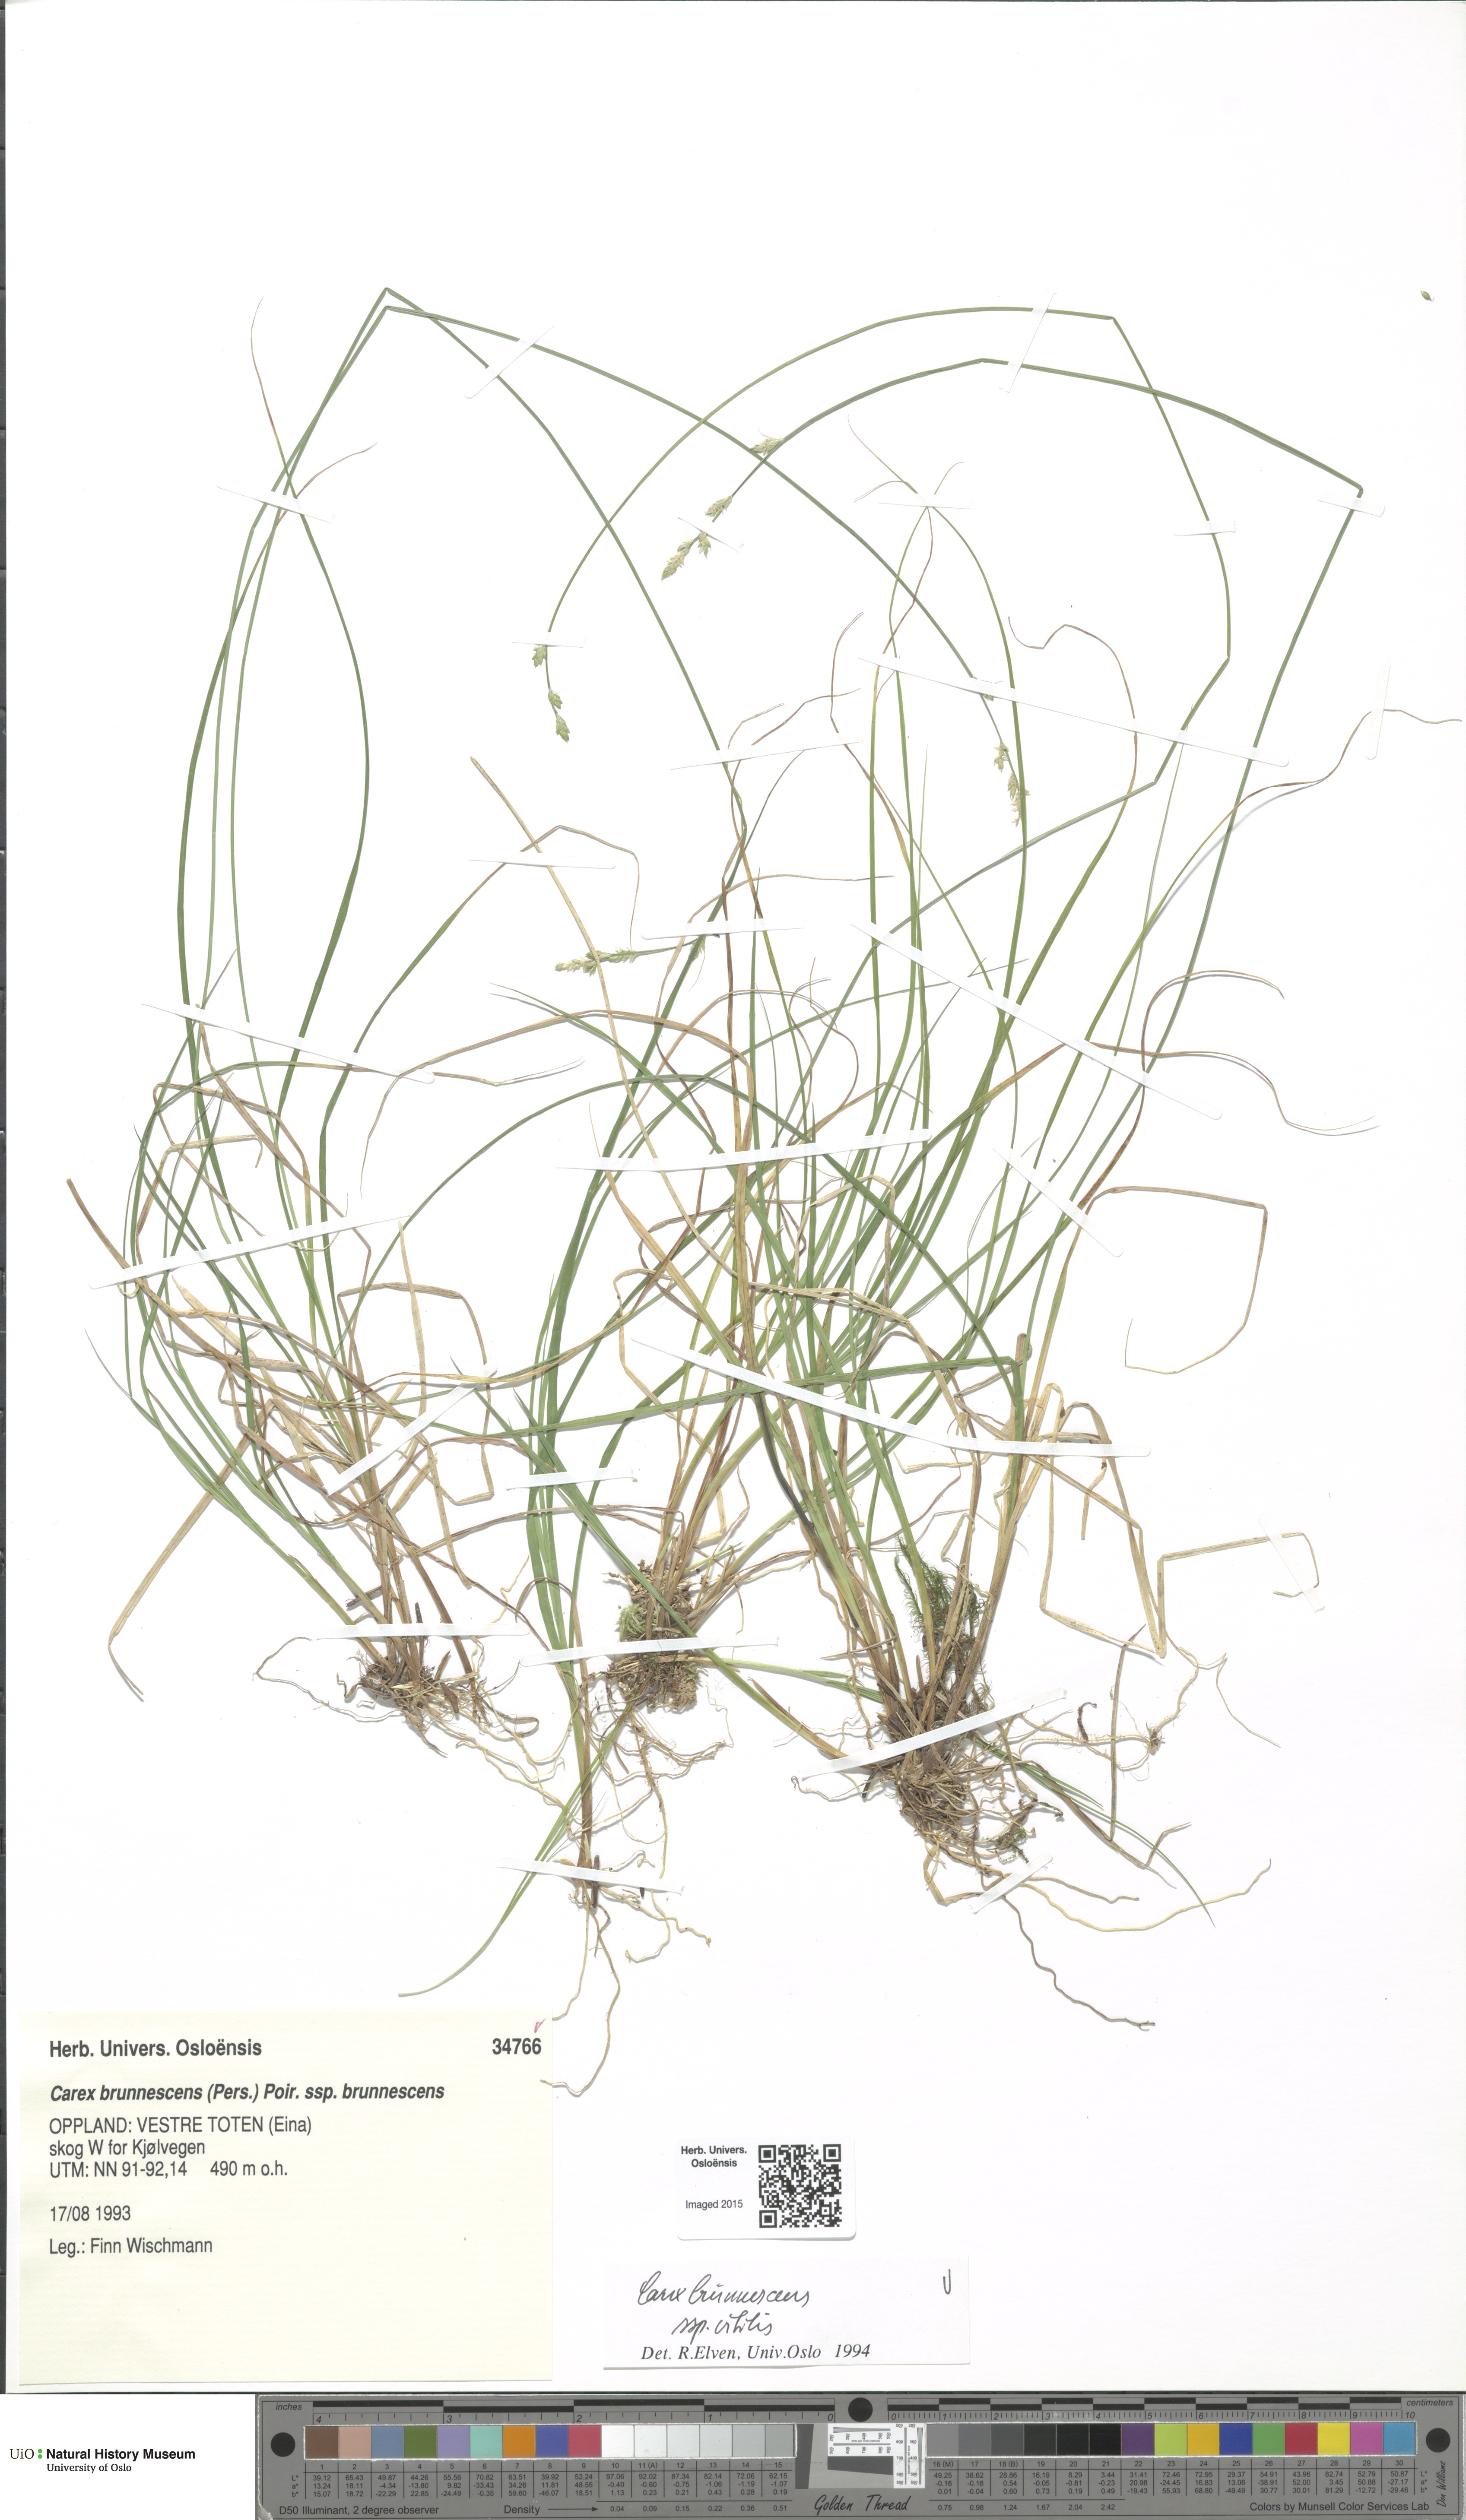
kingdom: Plantae
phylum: Tracheophyta
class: Liliopsida
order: Poales
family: Cyperaceae
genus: Carex
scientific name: Carex brunnescens
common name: Brown sedge
